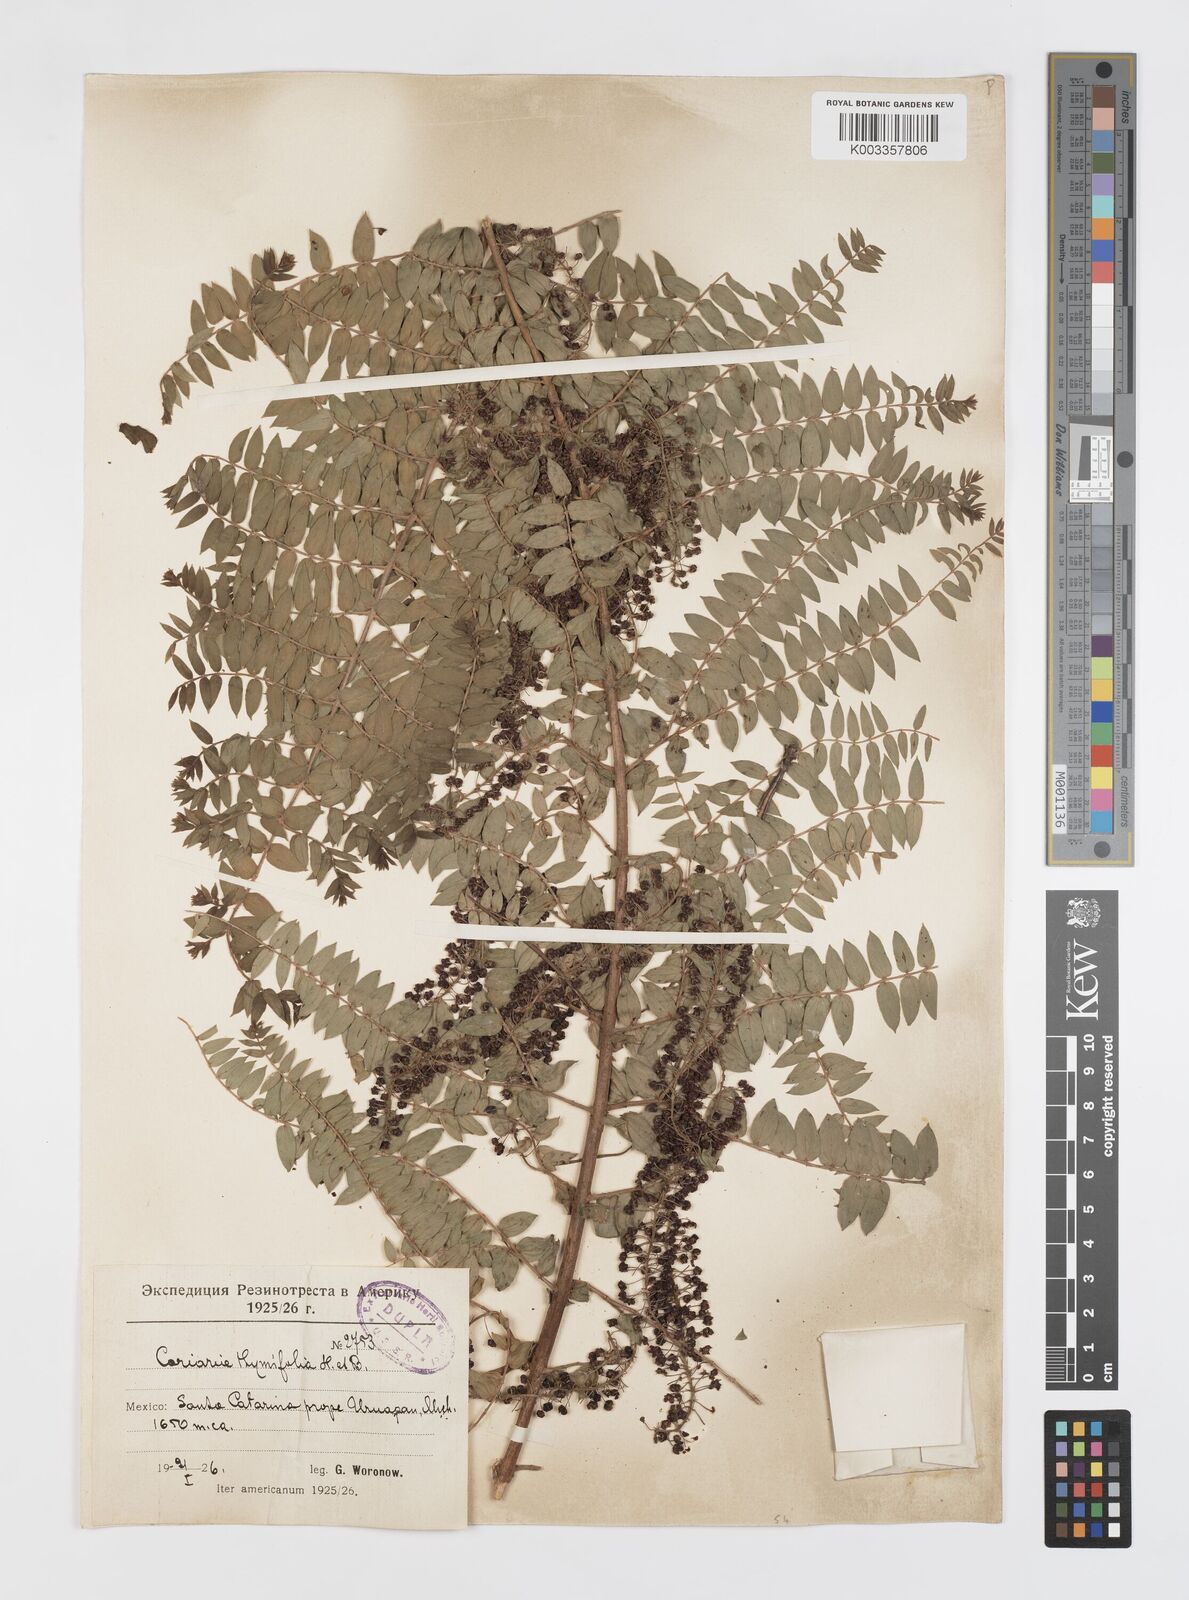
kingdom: Plantae
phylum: Tracheophyta
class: Magnoliopsida
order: Cucurbitales
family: Coriariaceae
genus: Coriaria
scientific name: Coriaria microphylla
